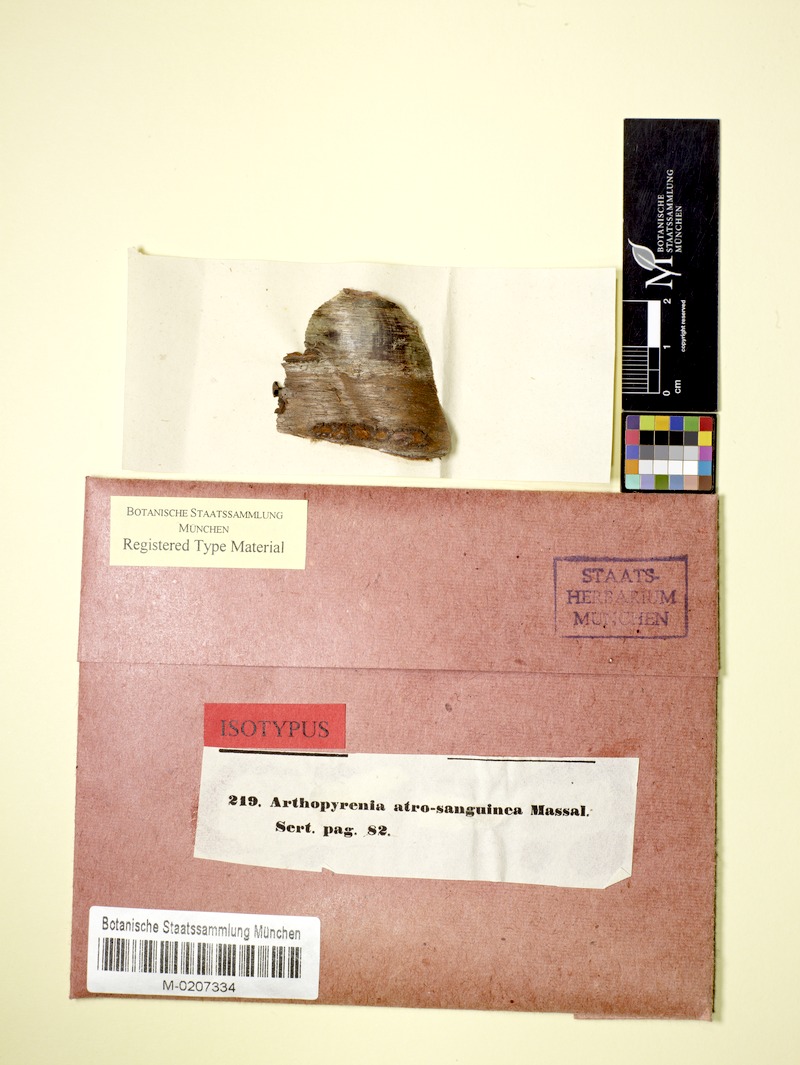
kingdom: Fungi
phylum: Ascomycota
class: Dothideomycetes
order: Pleosporales
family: Naetrocymbaceae
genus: Naetrocymbe
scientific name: Naetrocymbe punctiformis
